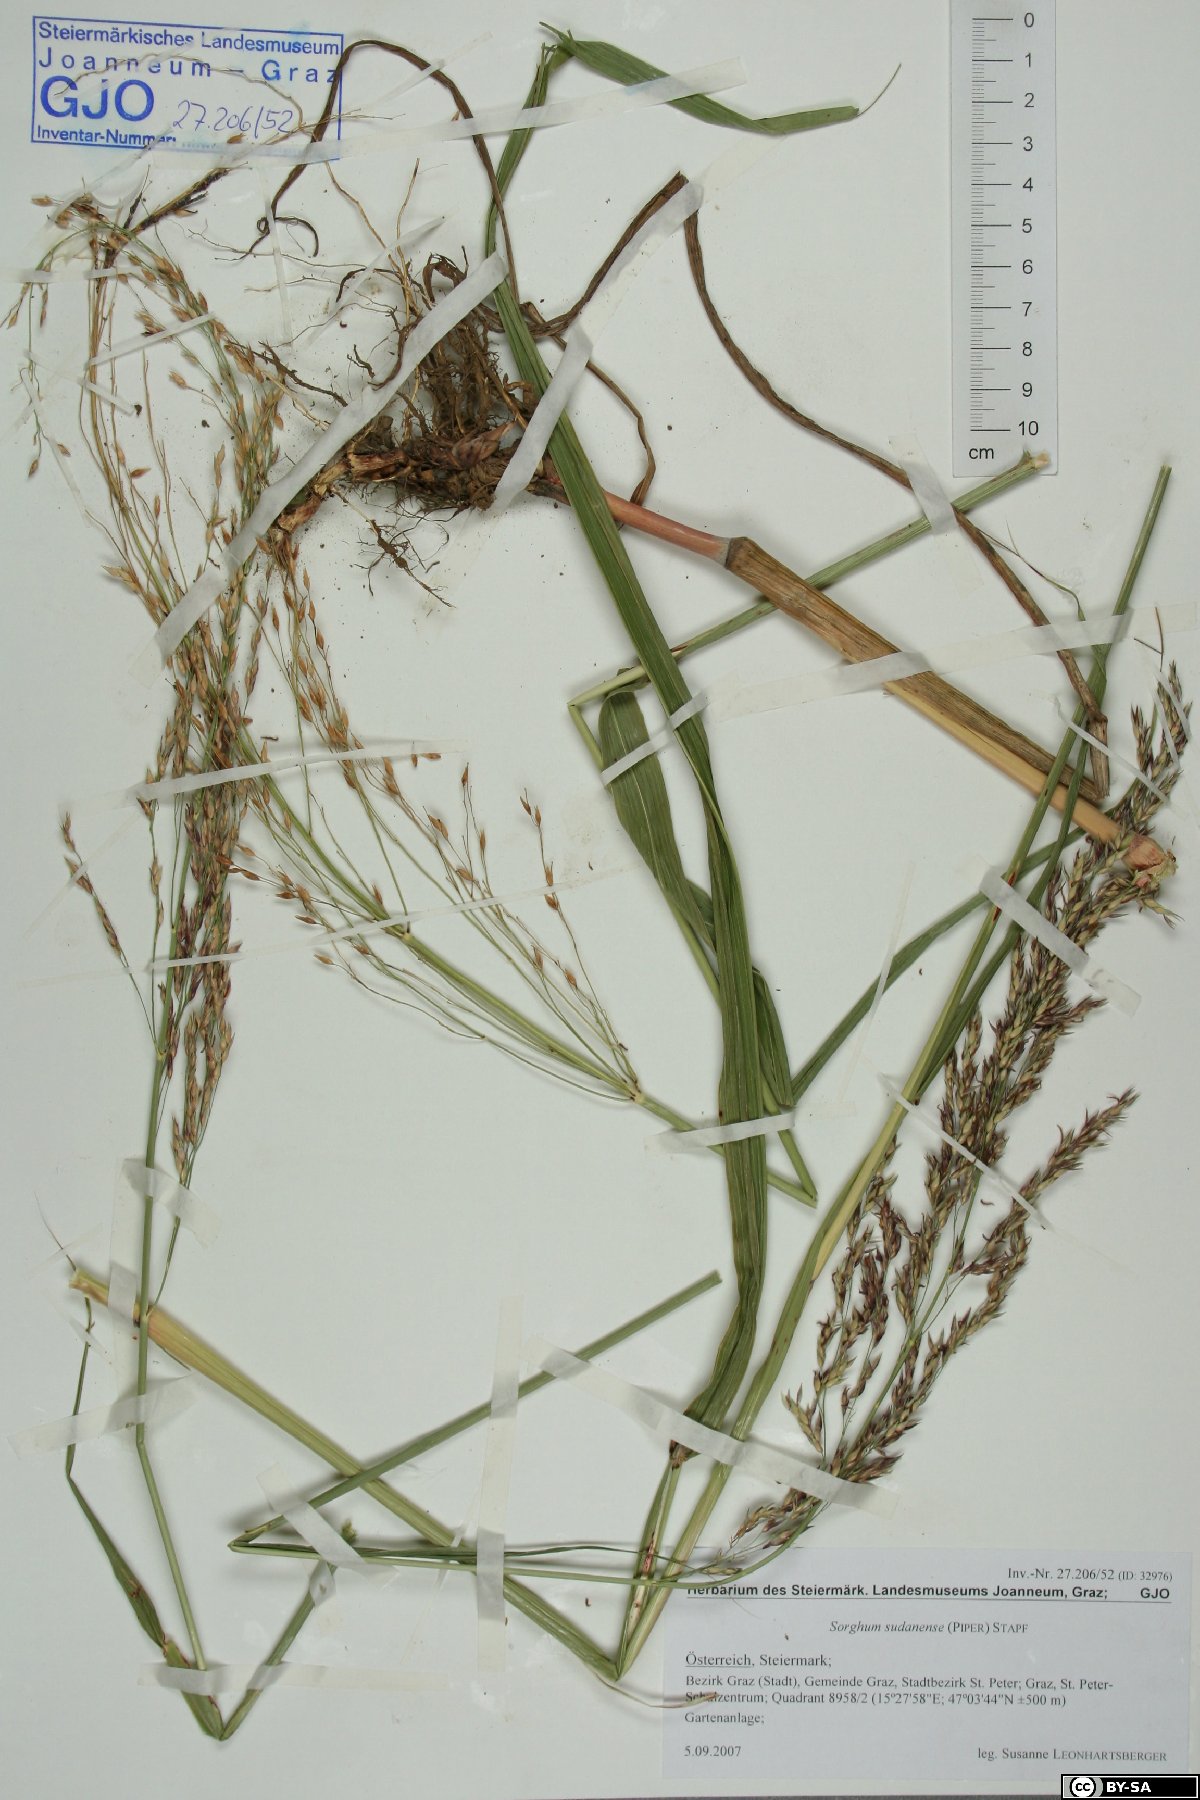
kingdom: Plantae
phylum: Tracheophyta
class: Liliopsida
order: Poales
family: Poaceae
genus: Sorghum
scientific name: Sorghum halepense
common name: Johnson-grass
